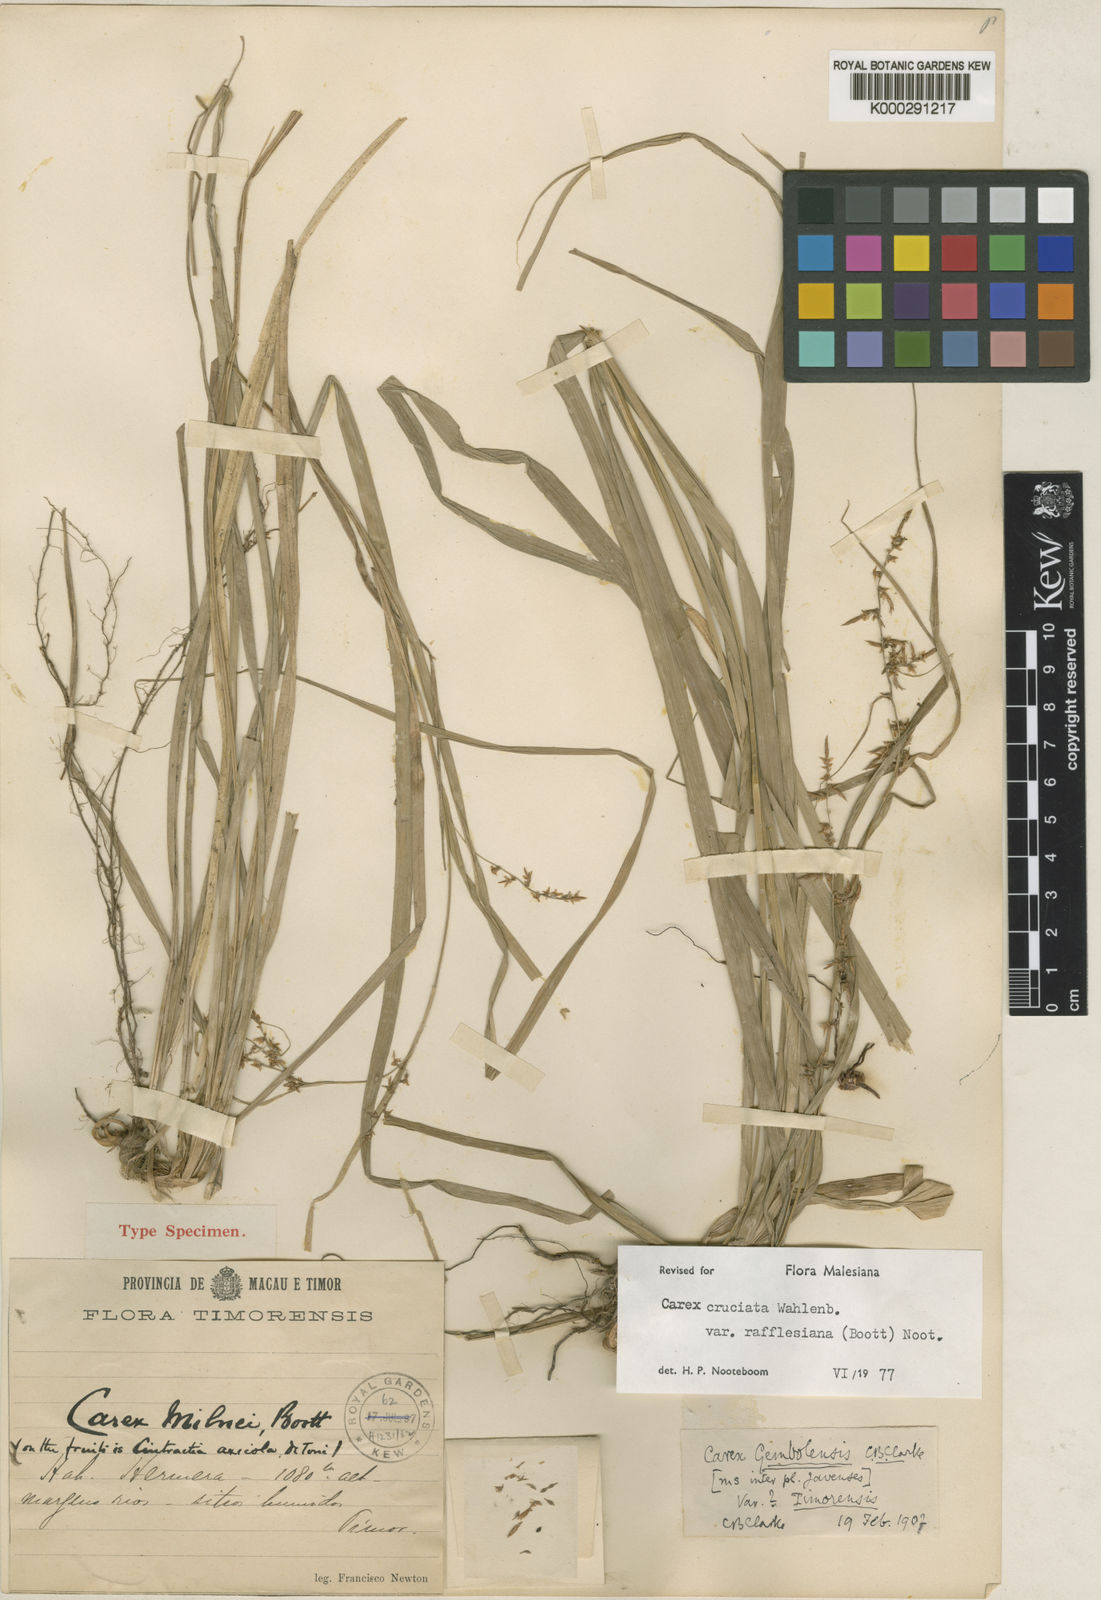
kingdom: Plantae
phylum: Tracheophyta
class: Liliopsida
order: Poales
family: Cyperaceae
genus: Carex
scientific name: Carex rafflesiana
